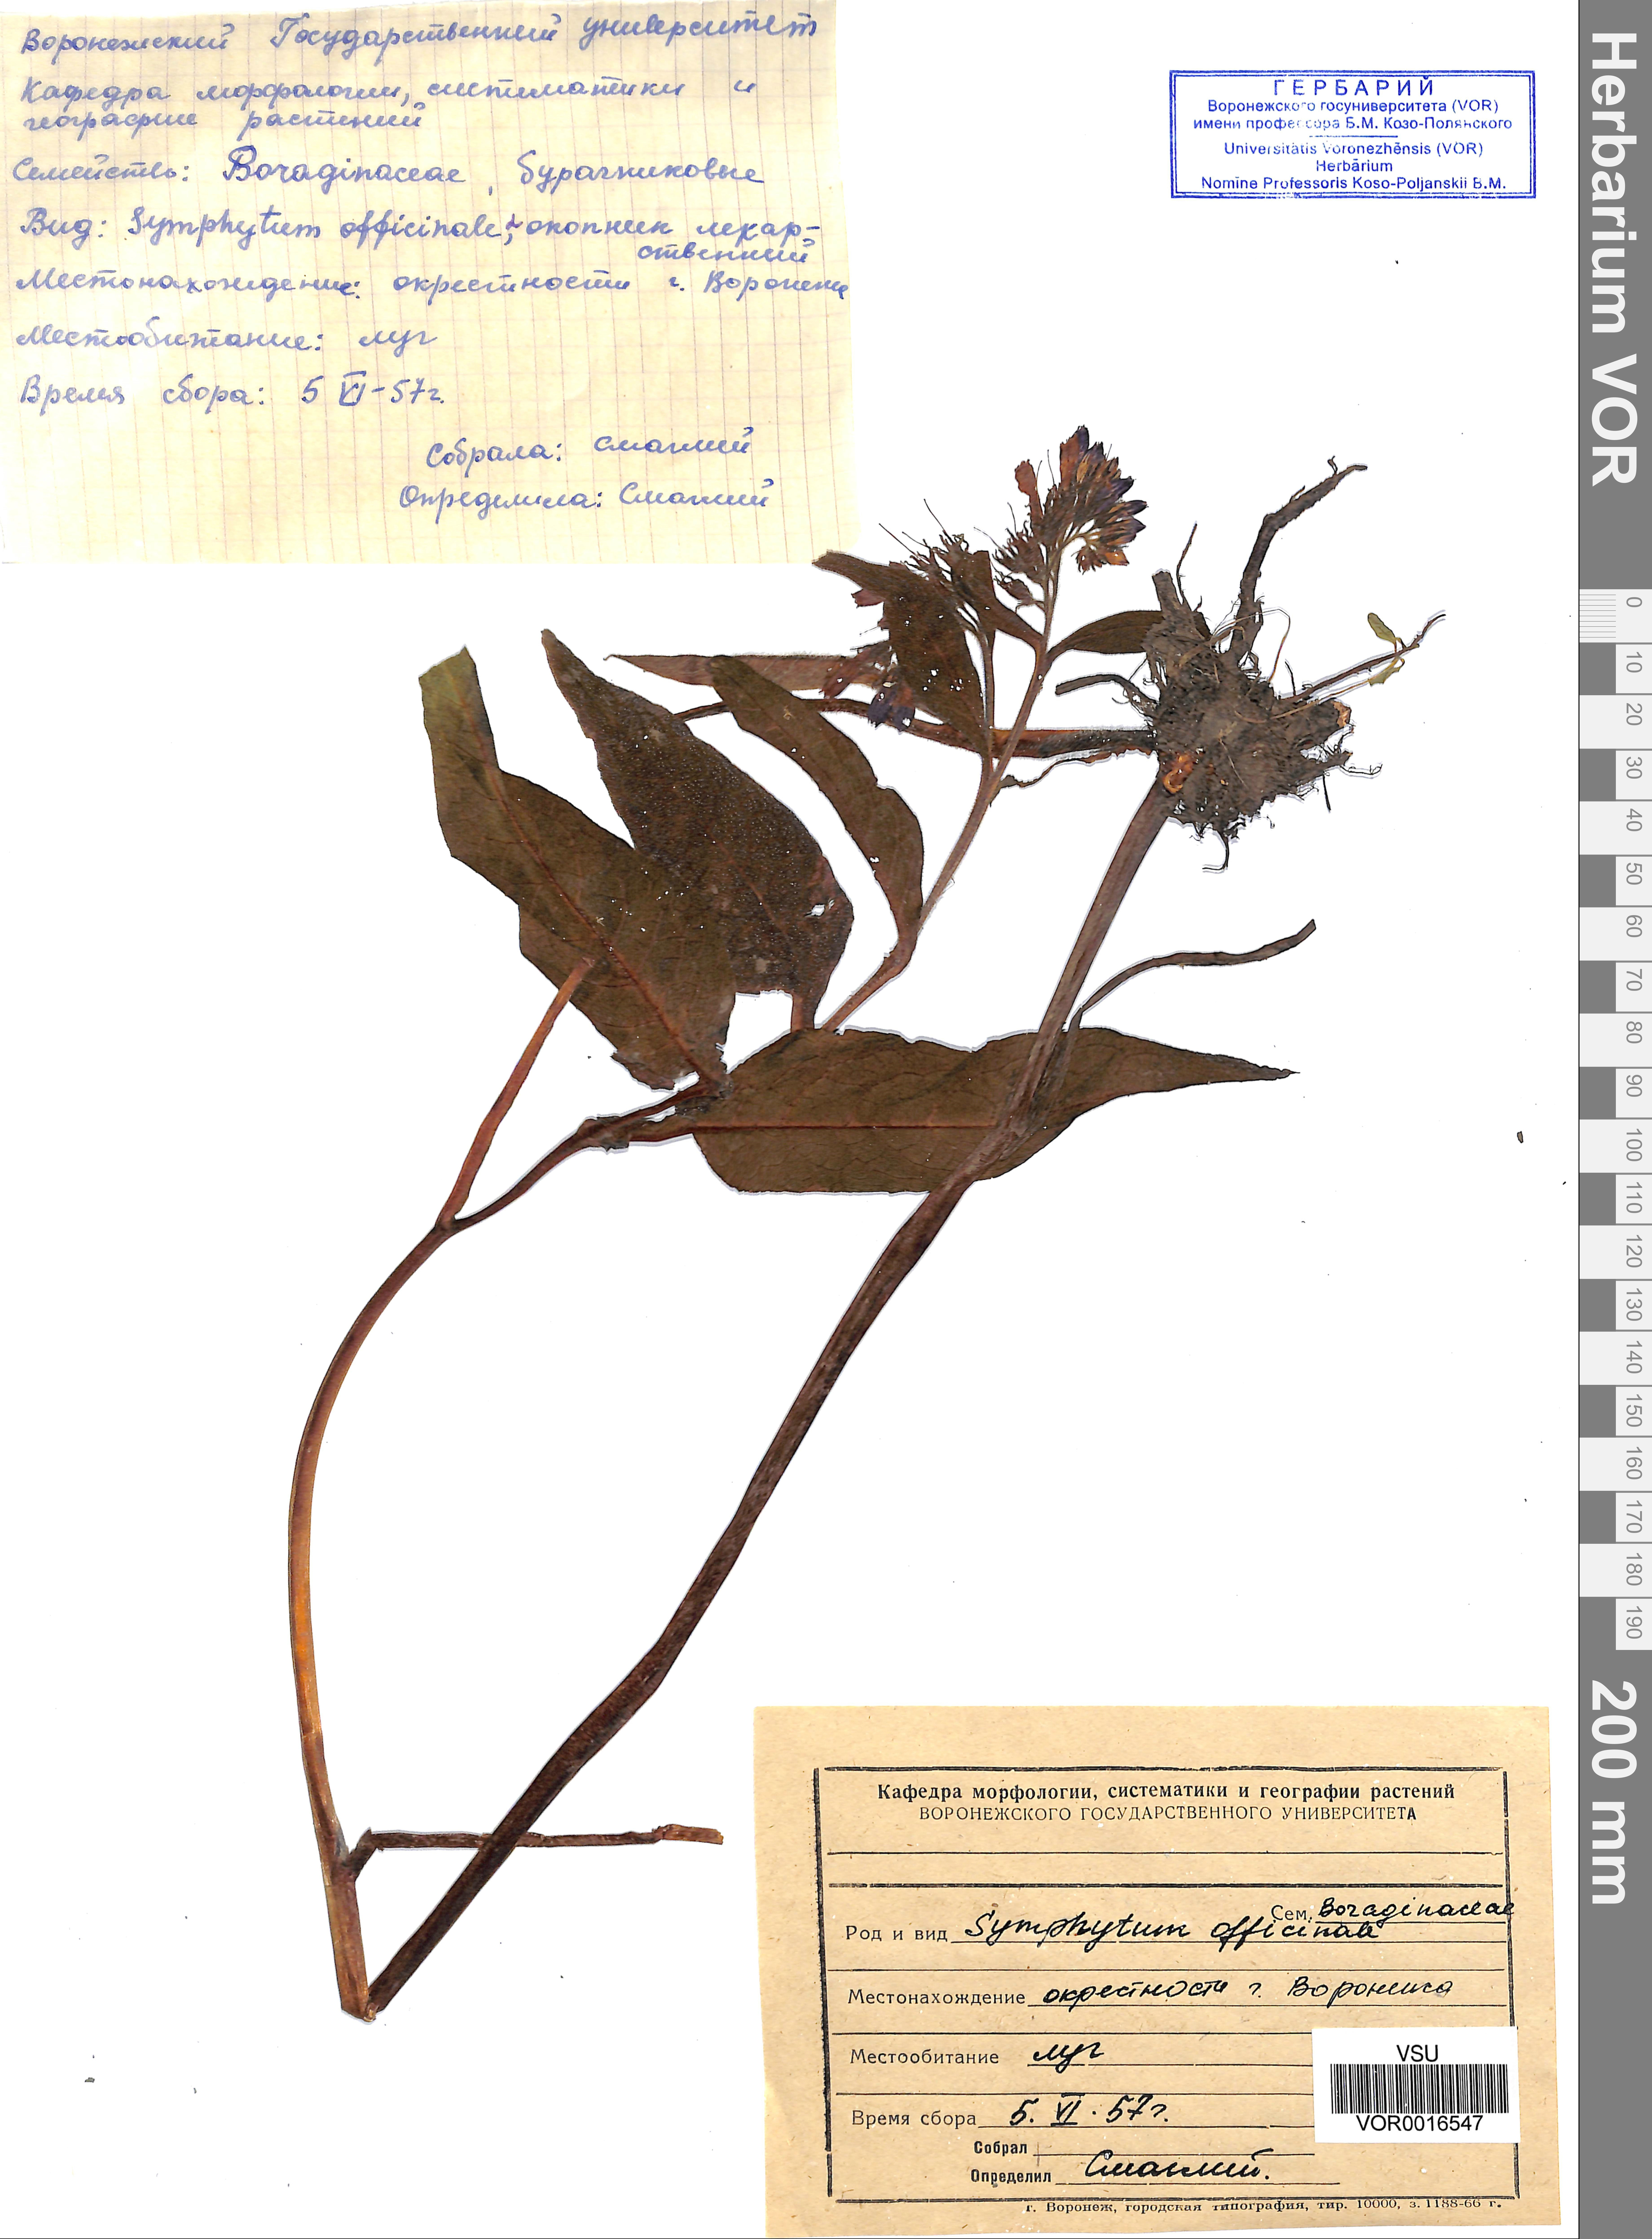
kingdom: Plantae
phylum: Tracheophyta
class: Magnoliopsida
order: Boraginales
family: Boraginaceae
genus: Symphytum
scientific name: Symphytum officinale
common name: Common comfrey
